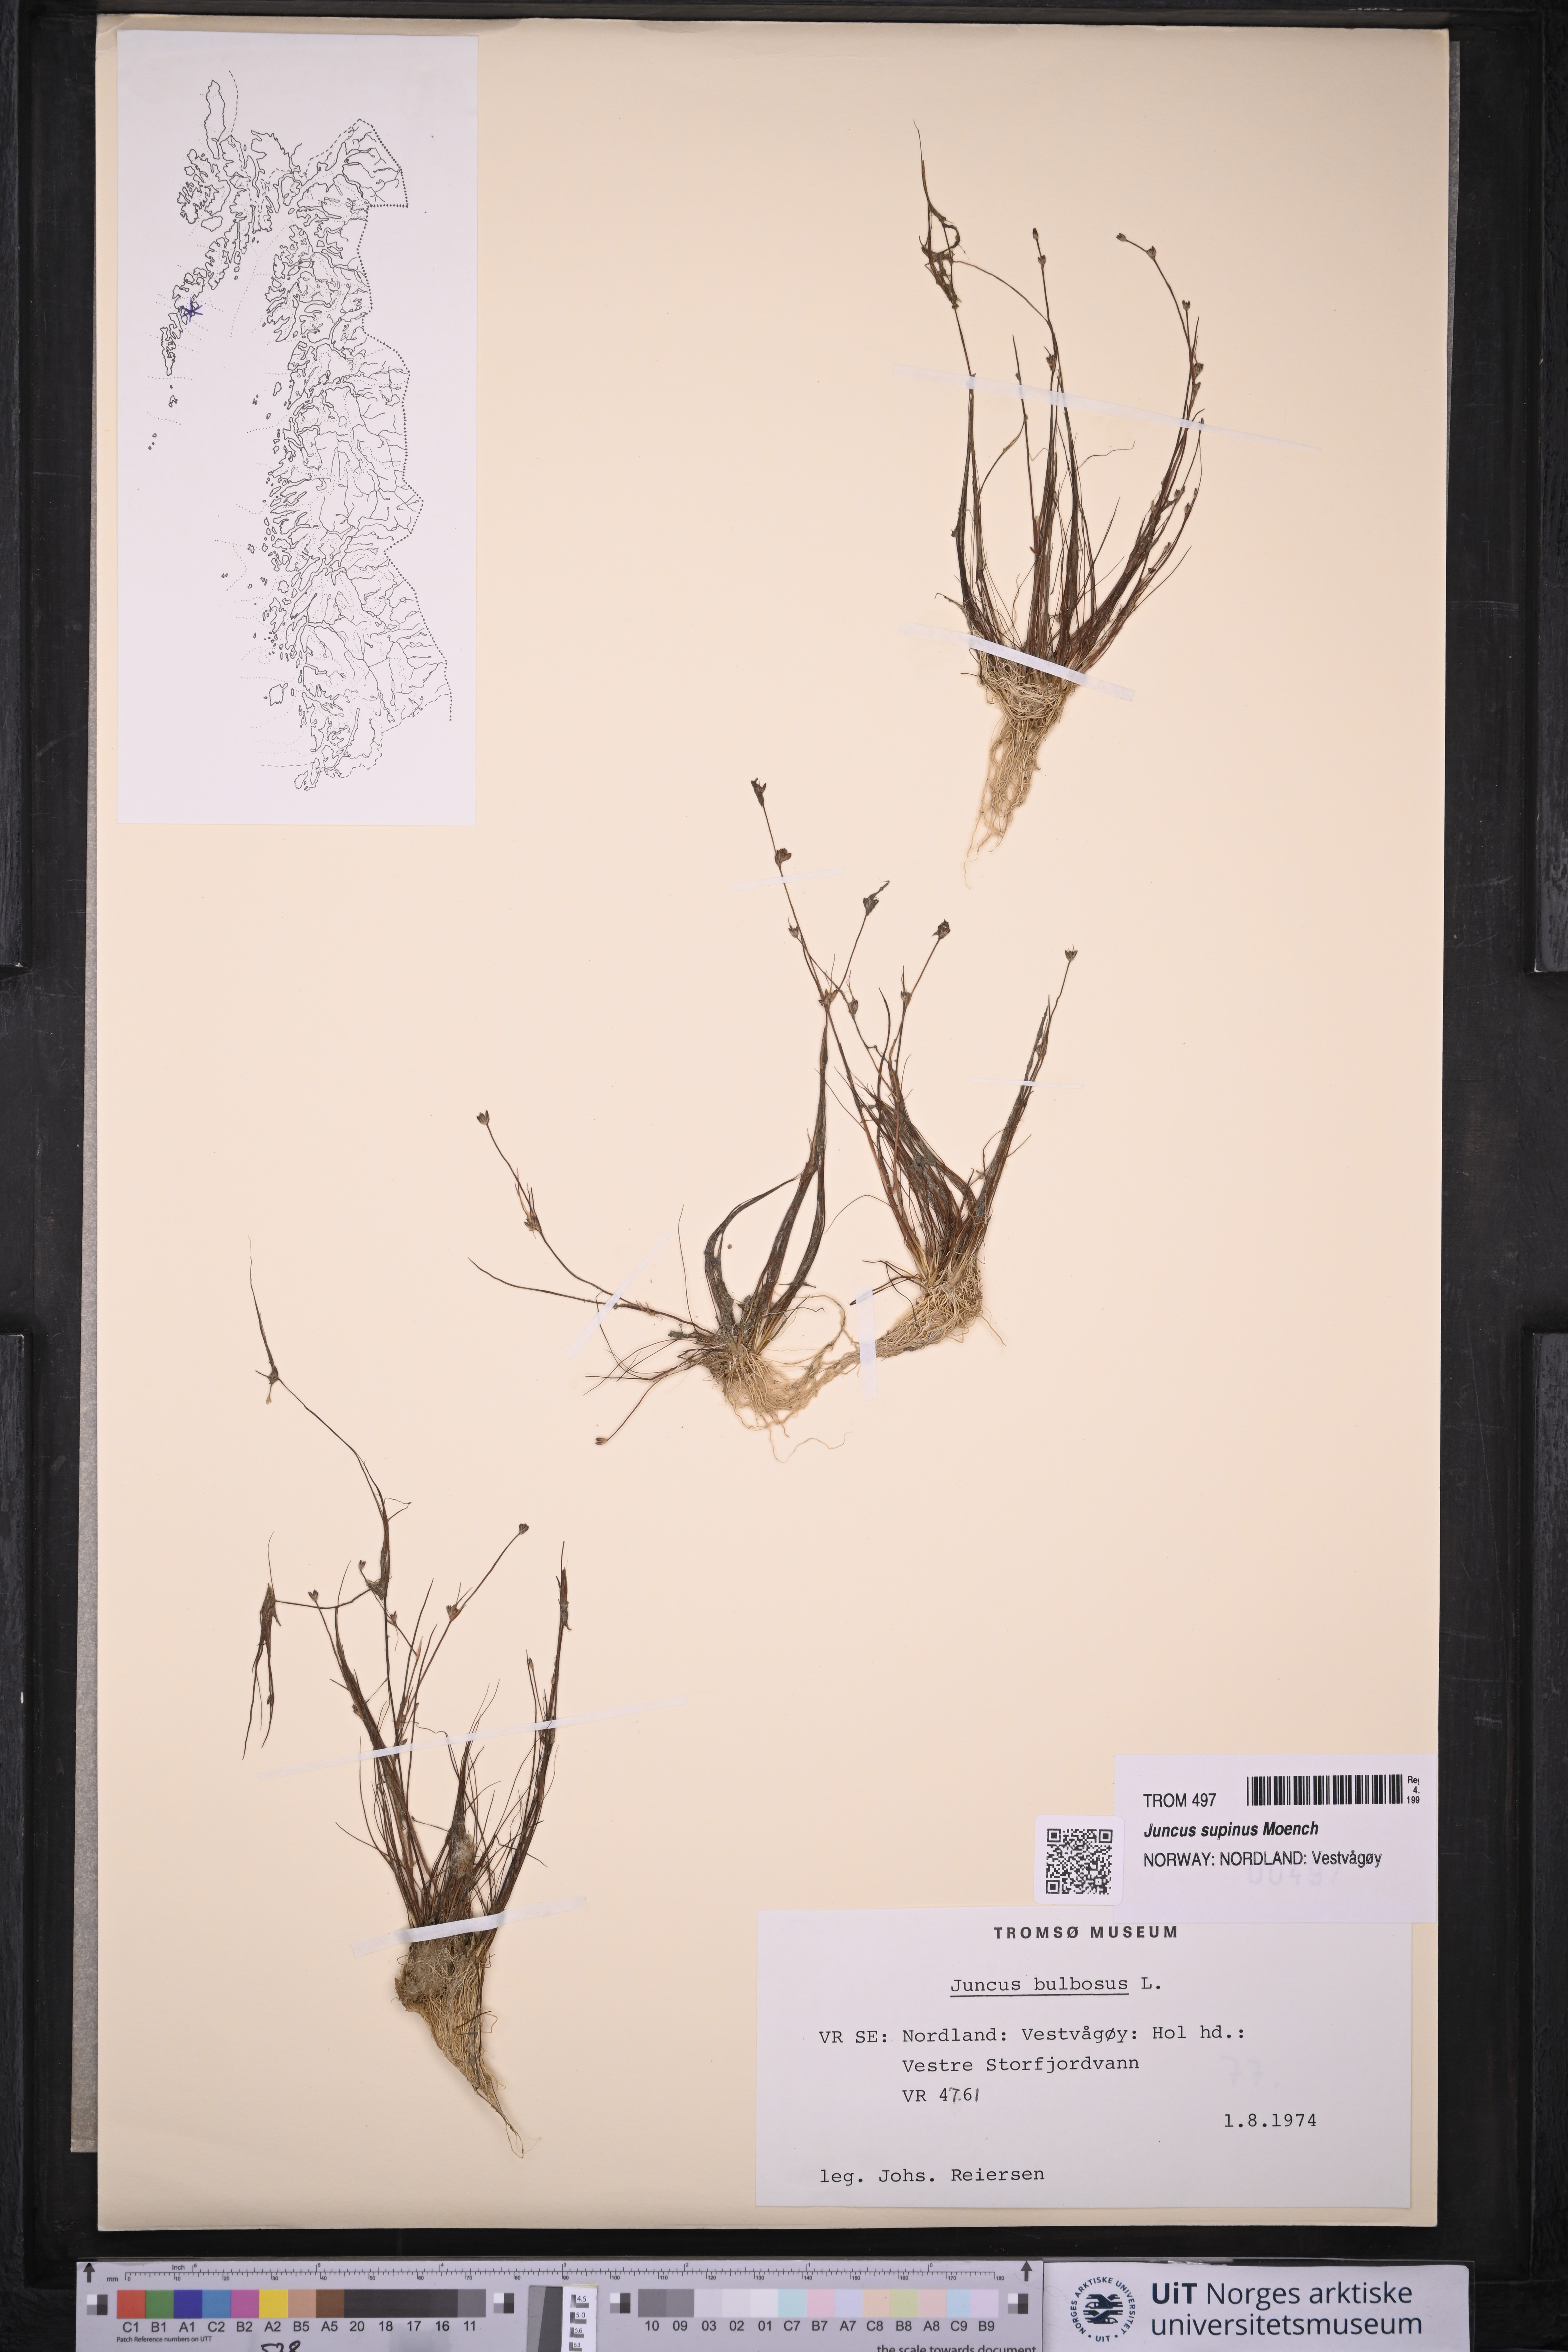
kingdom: Plantae
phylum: Tracheophyta
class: Liliopsida
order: Poales
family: Juncaceae
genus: Juncus
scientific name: Juncus bulbosus
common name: Bulbous rush
